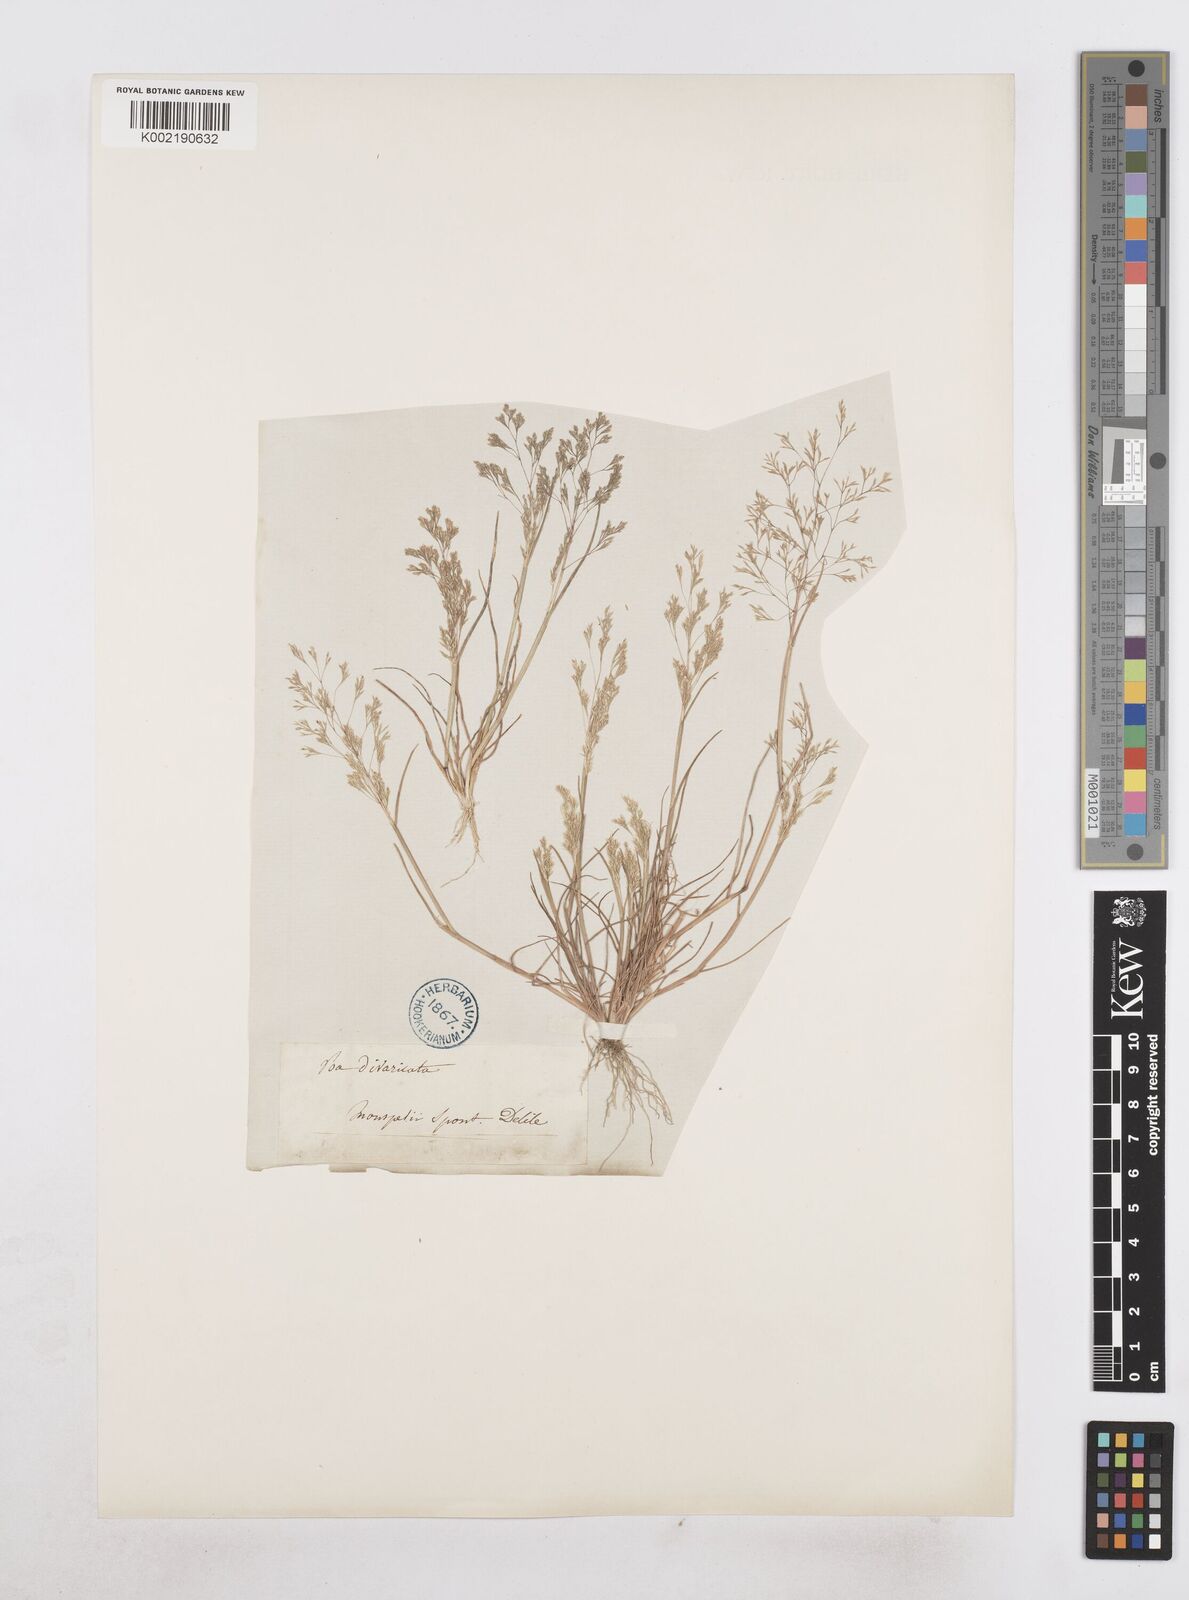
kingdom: Plantae
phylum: Tracheophyta
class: Liliopsida
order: Poales
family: Poaceae
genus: Sphenopus
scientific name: Sphenopus divaricatus
